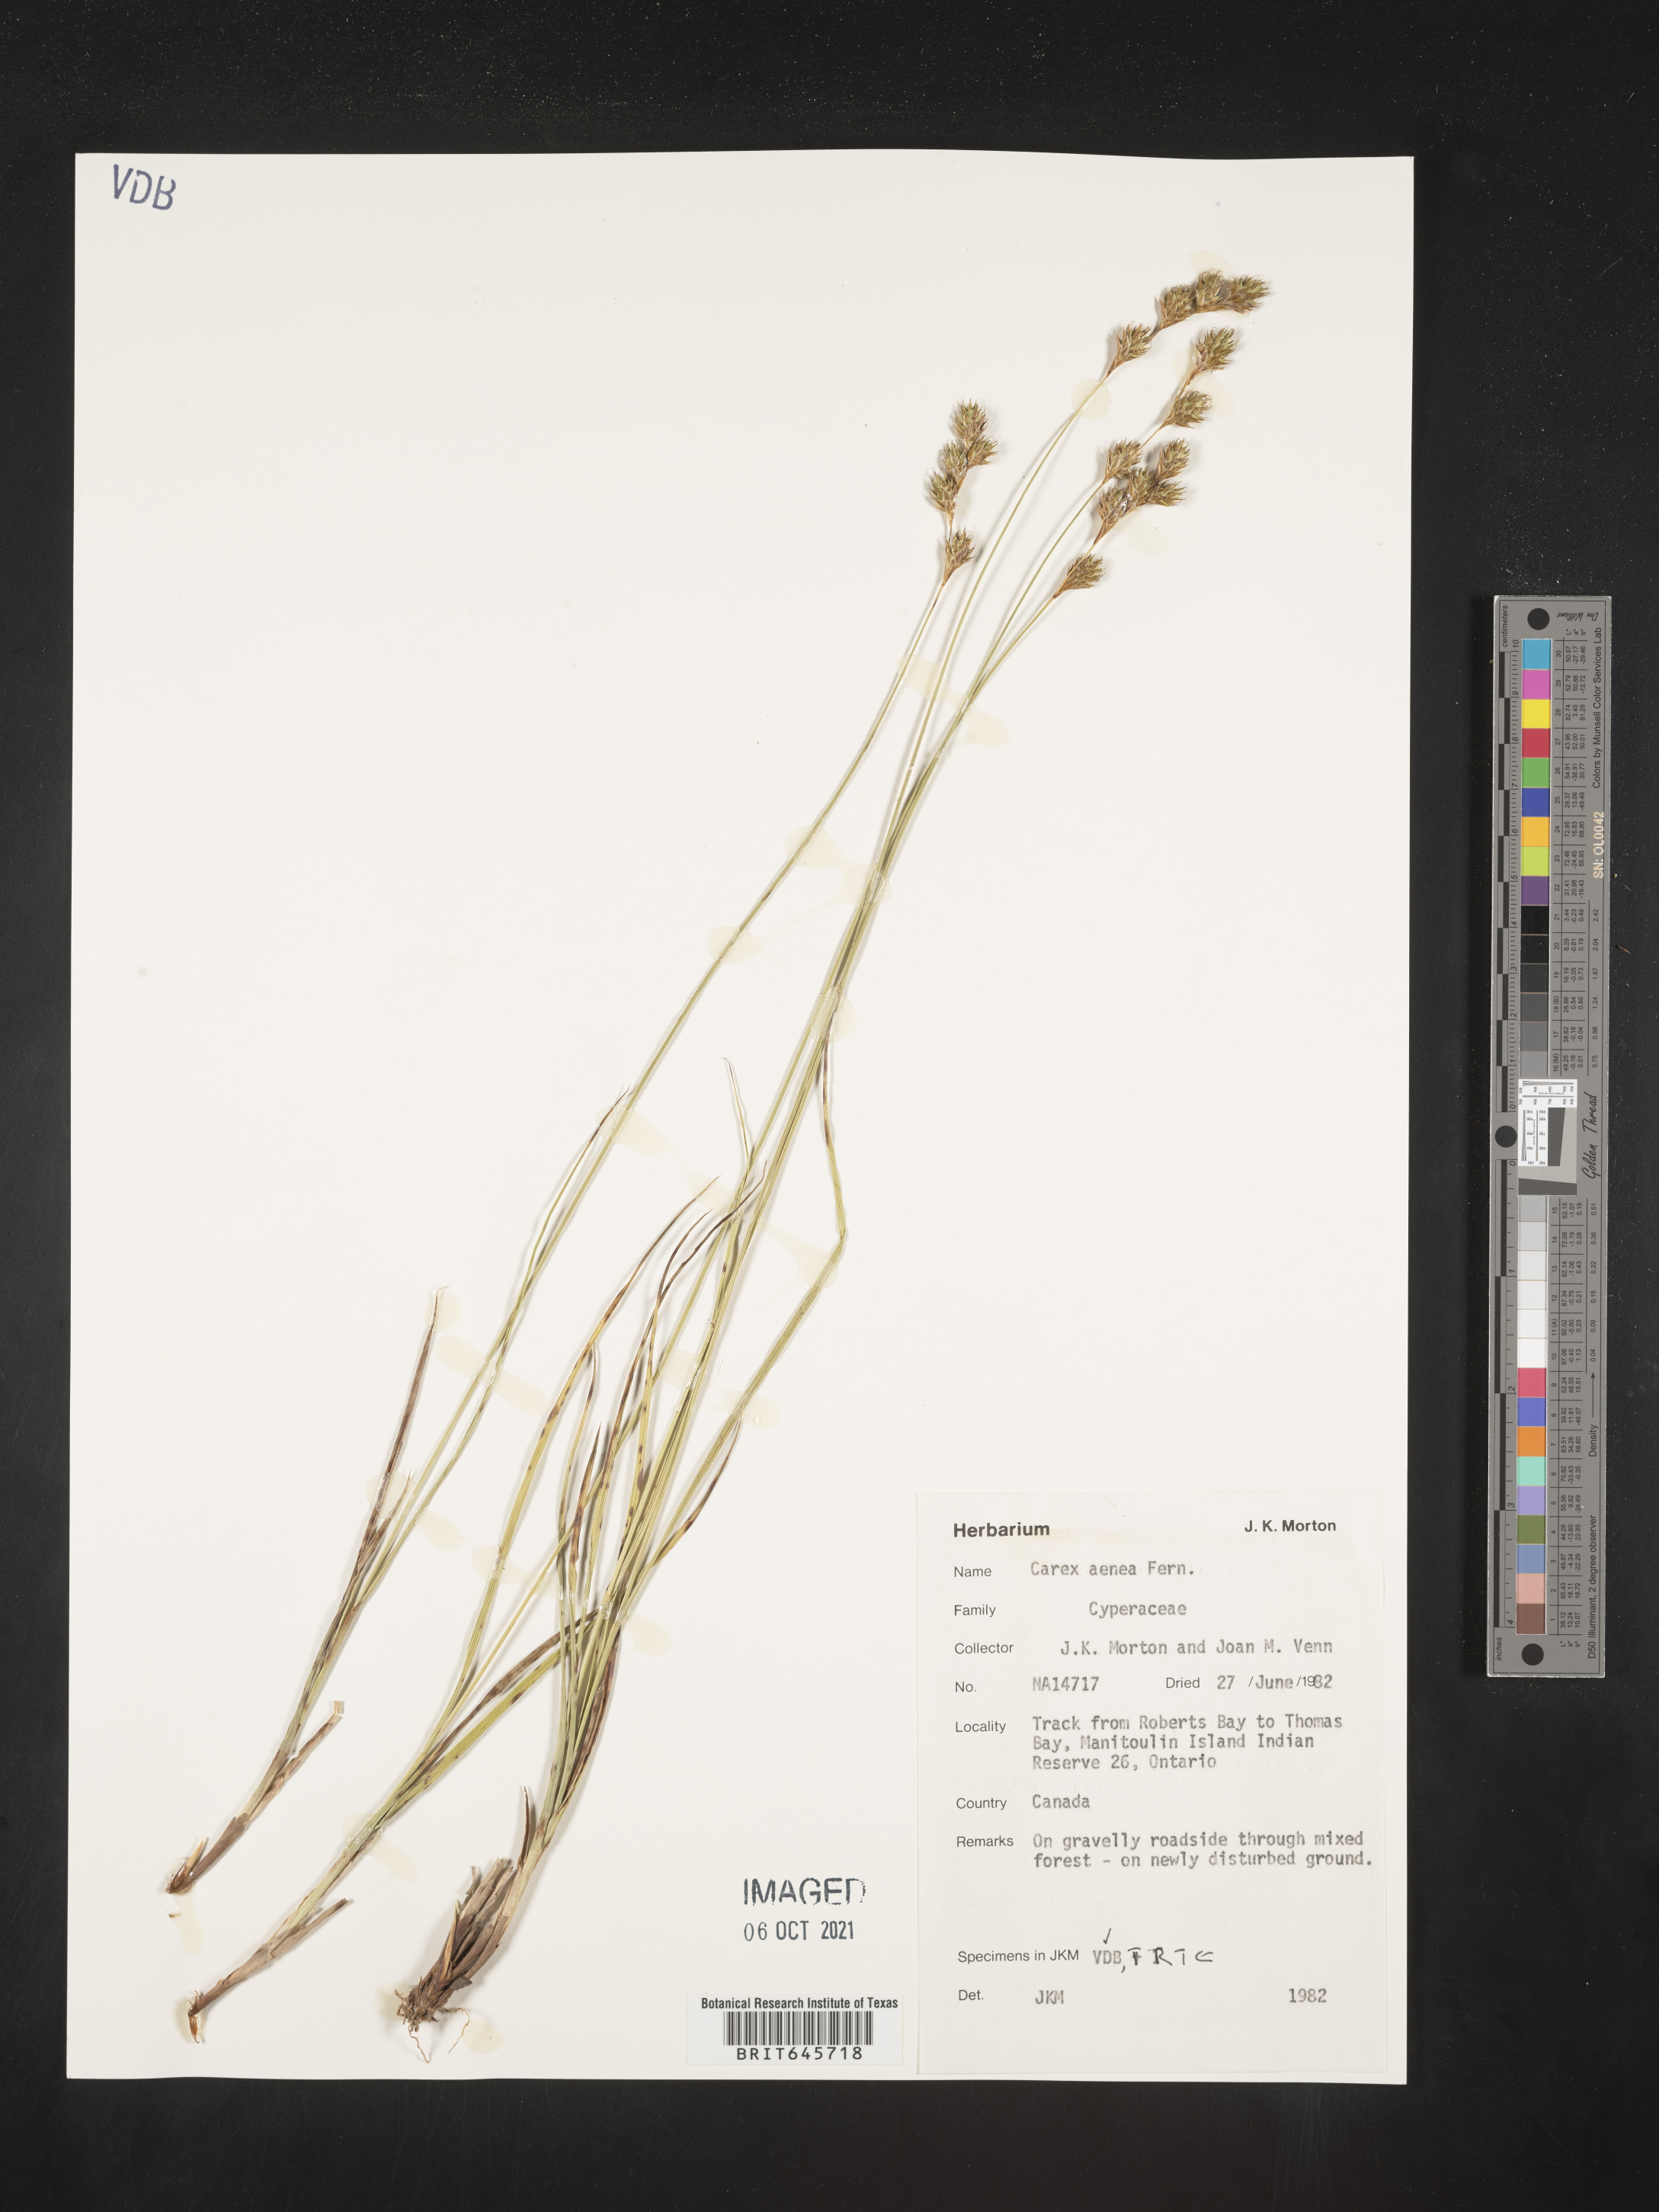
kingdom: Plantae
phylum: Tracheophyta
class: Liliopsida
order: Poales
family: Cyperaceae
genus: Carex
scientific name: Carex foenea
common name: Bronze sedge
